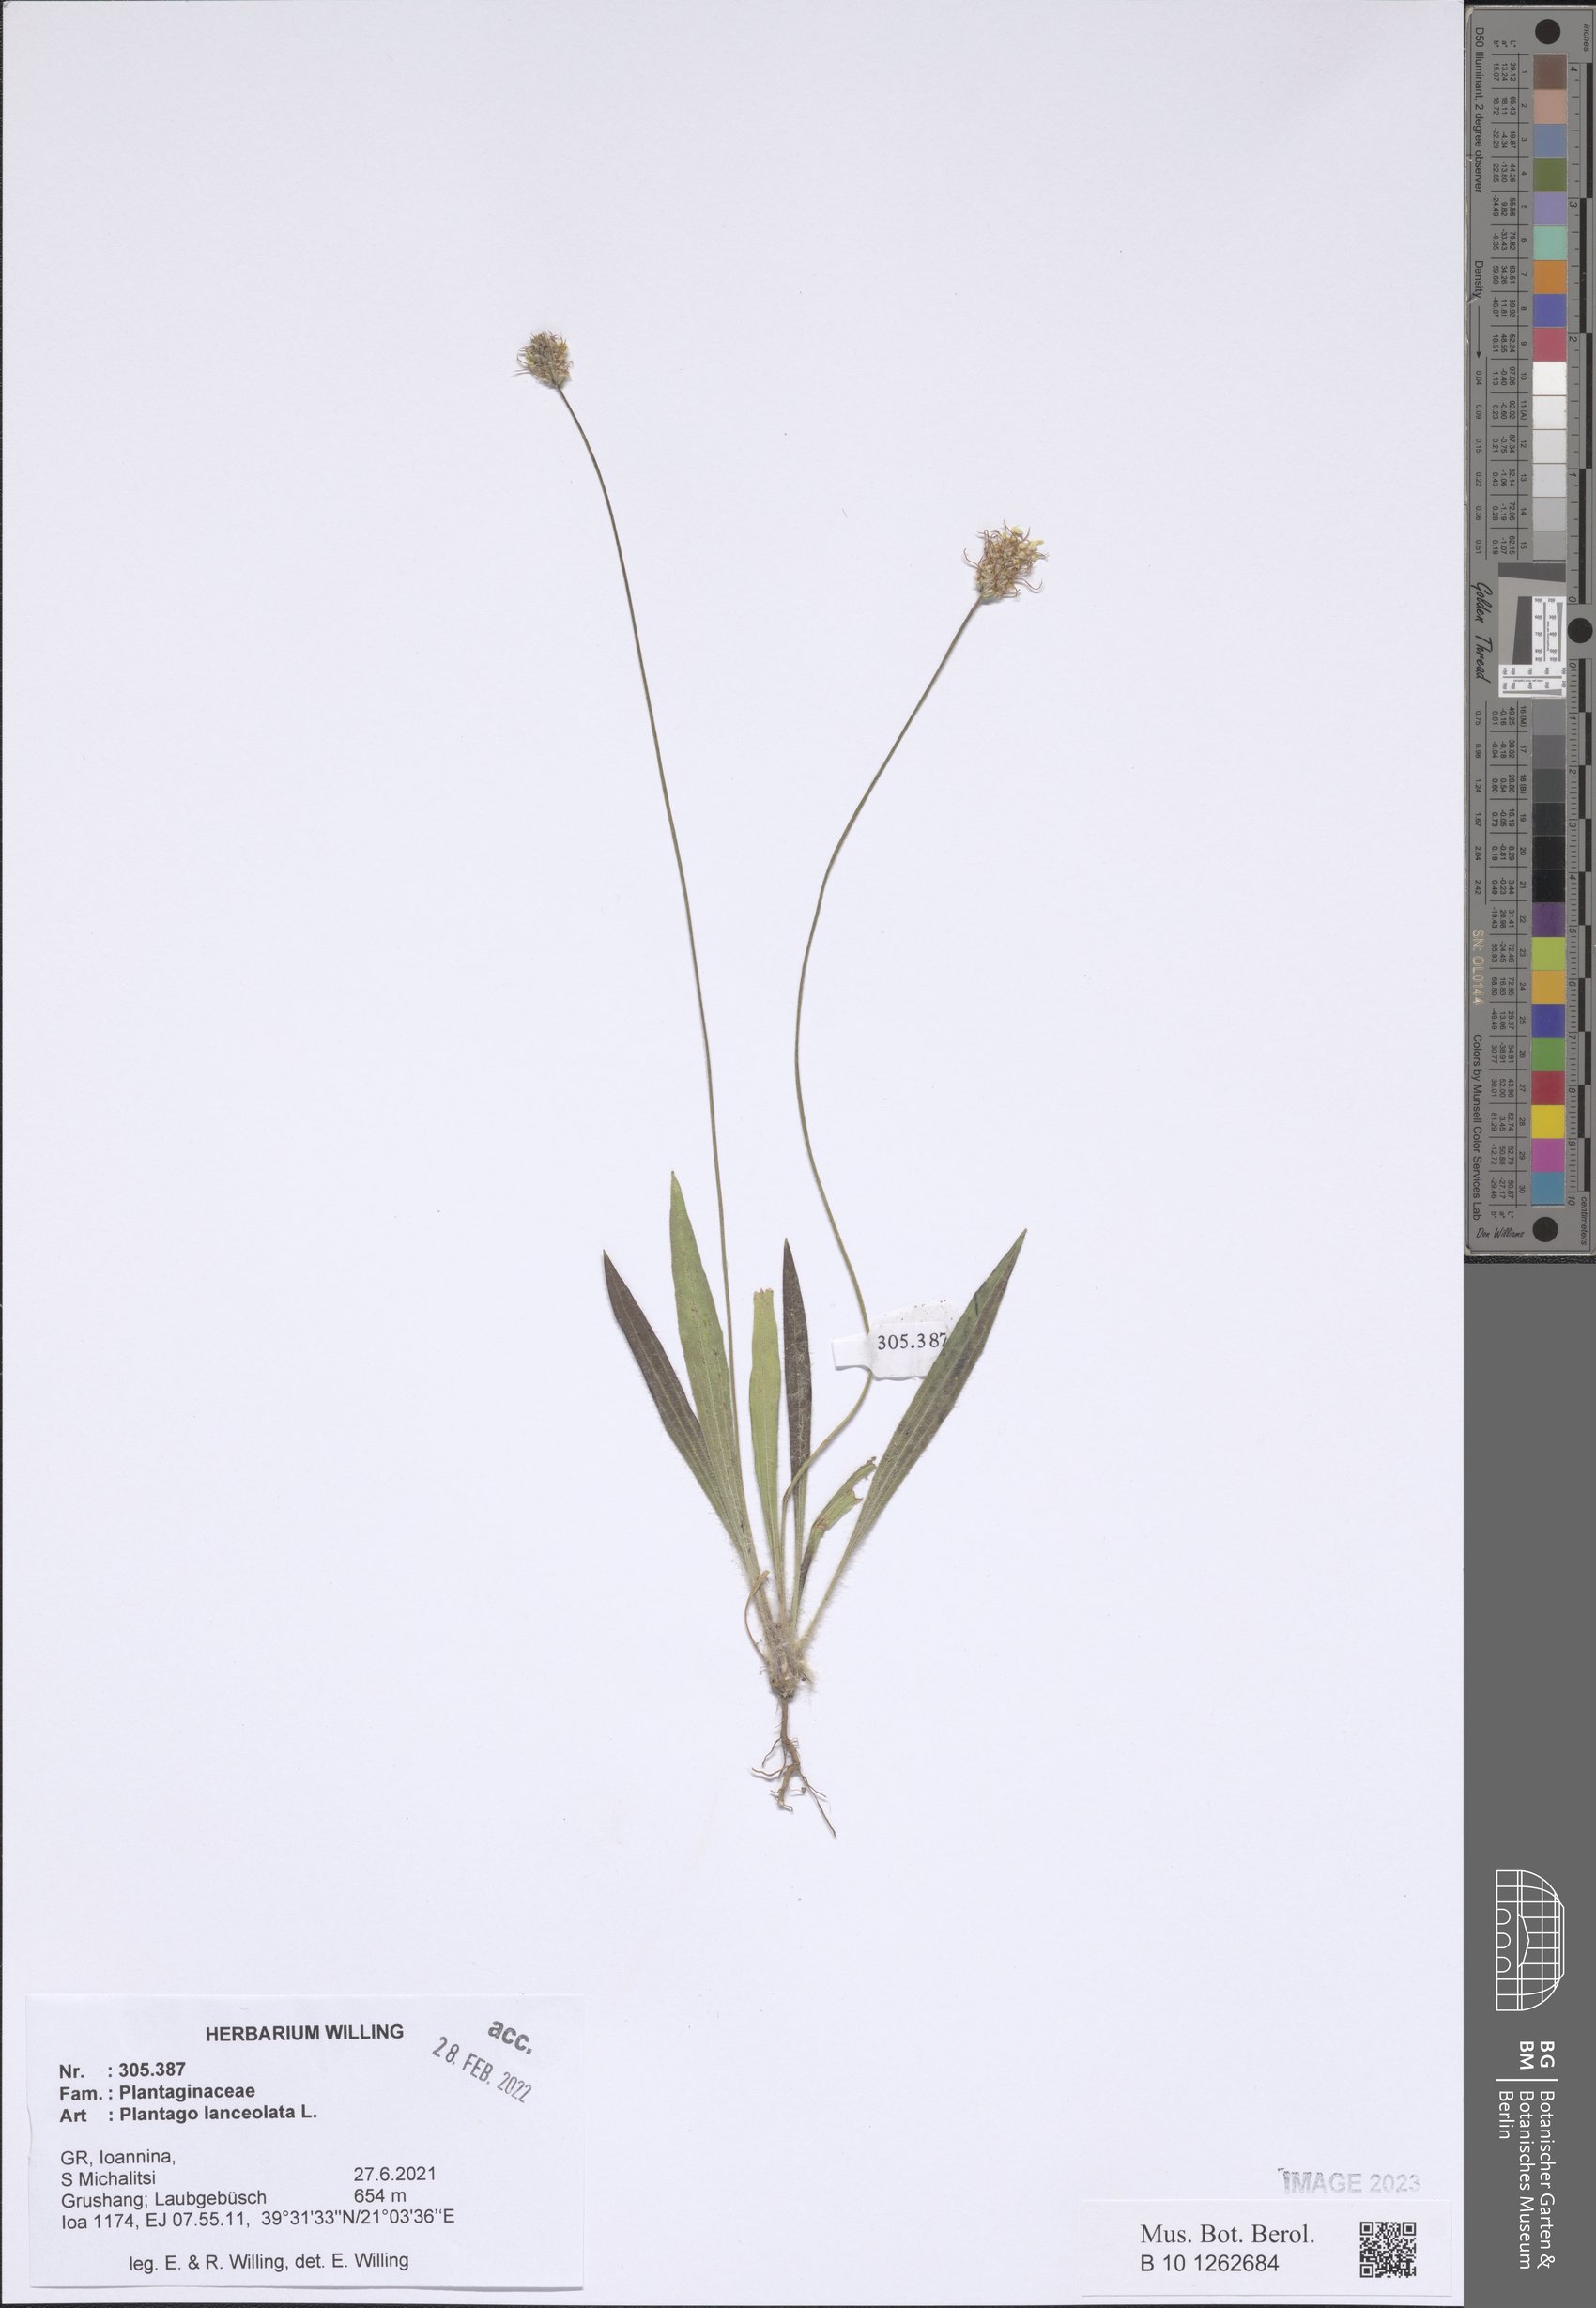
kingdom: Plantae
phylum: Tracheophyta
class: Magnoliopsida
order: Lamiales
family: Plantaginaceae
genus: Plantago
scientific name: Plantago lanceolata
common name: Ribwort plantain
